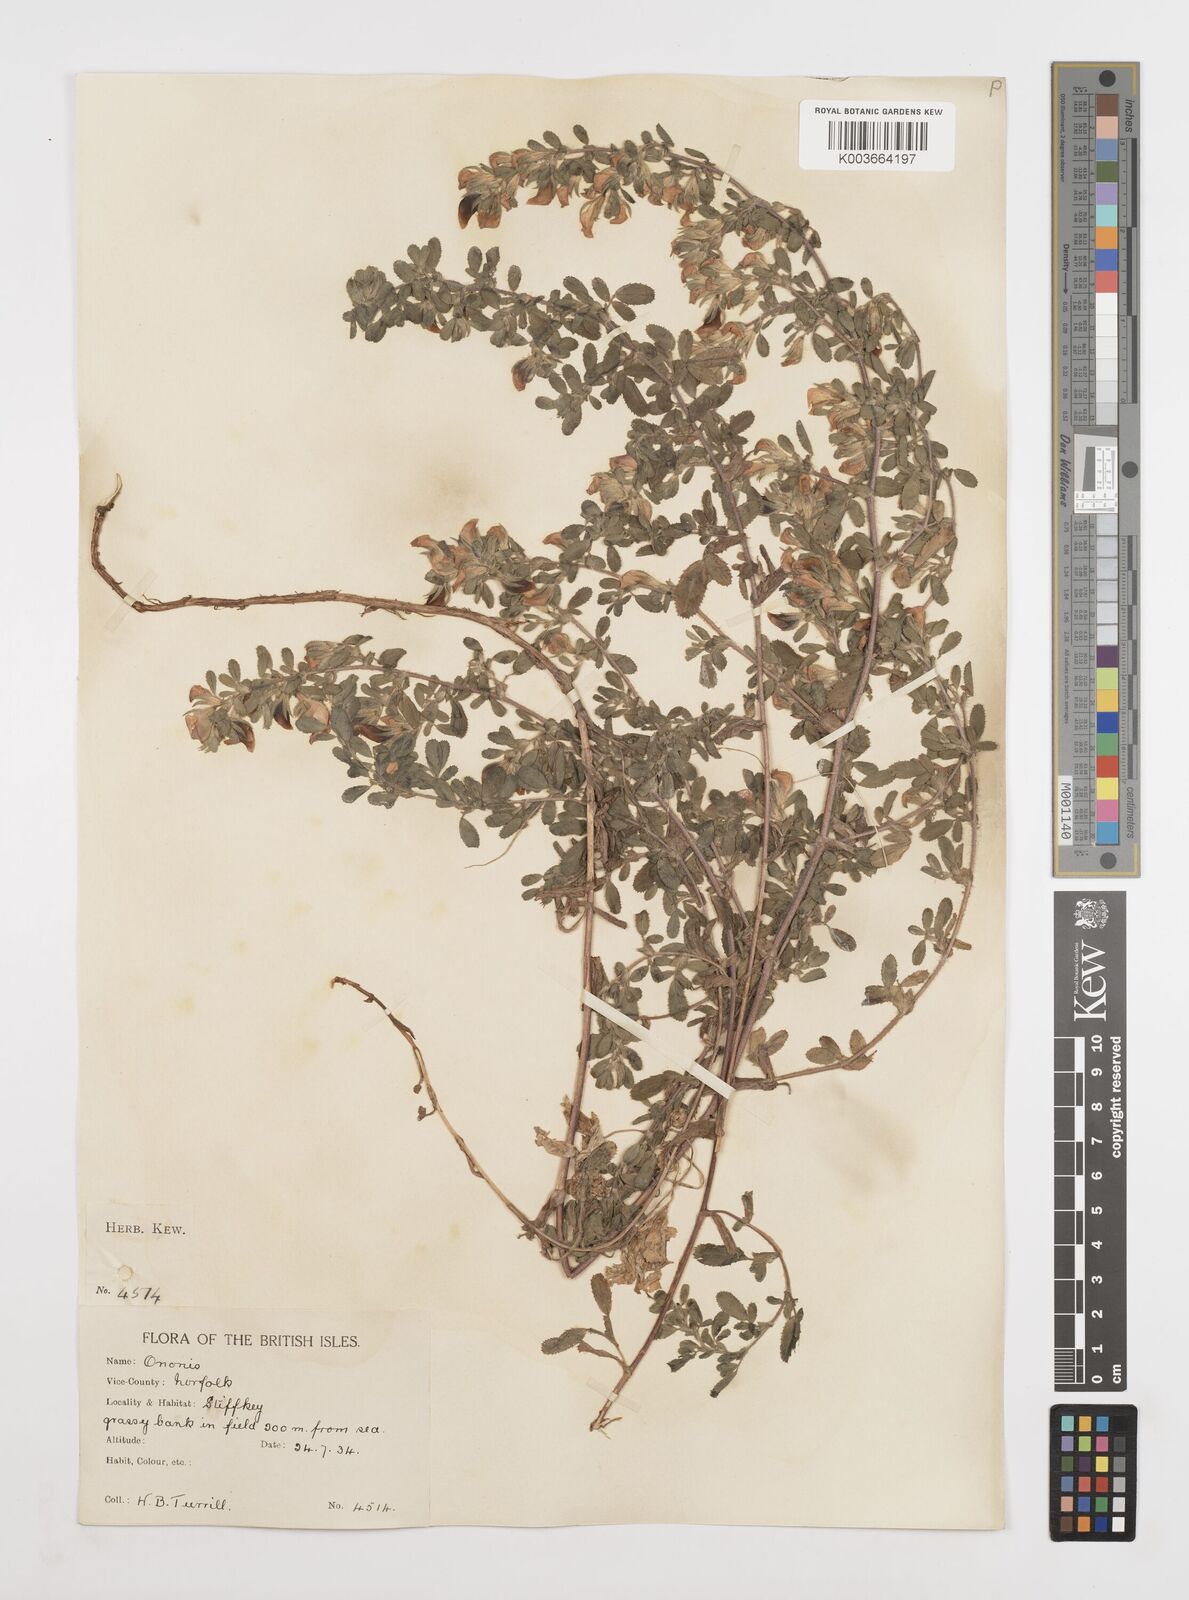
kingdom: Plantae
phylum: Tracheophyta
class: Magnoliopsida
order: Fabales
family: Fabaceae
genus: Ononis
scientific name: Ononis spinosa
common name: Spiny restharrow
